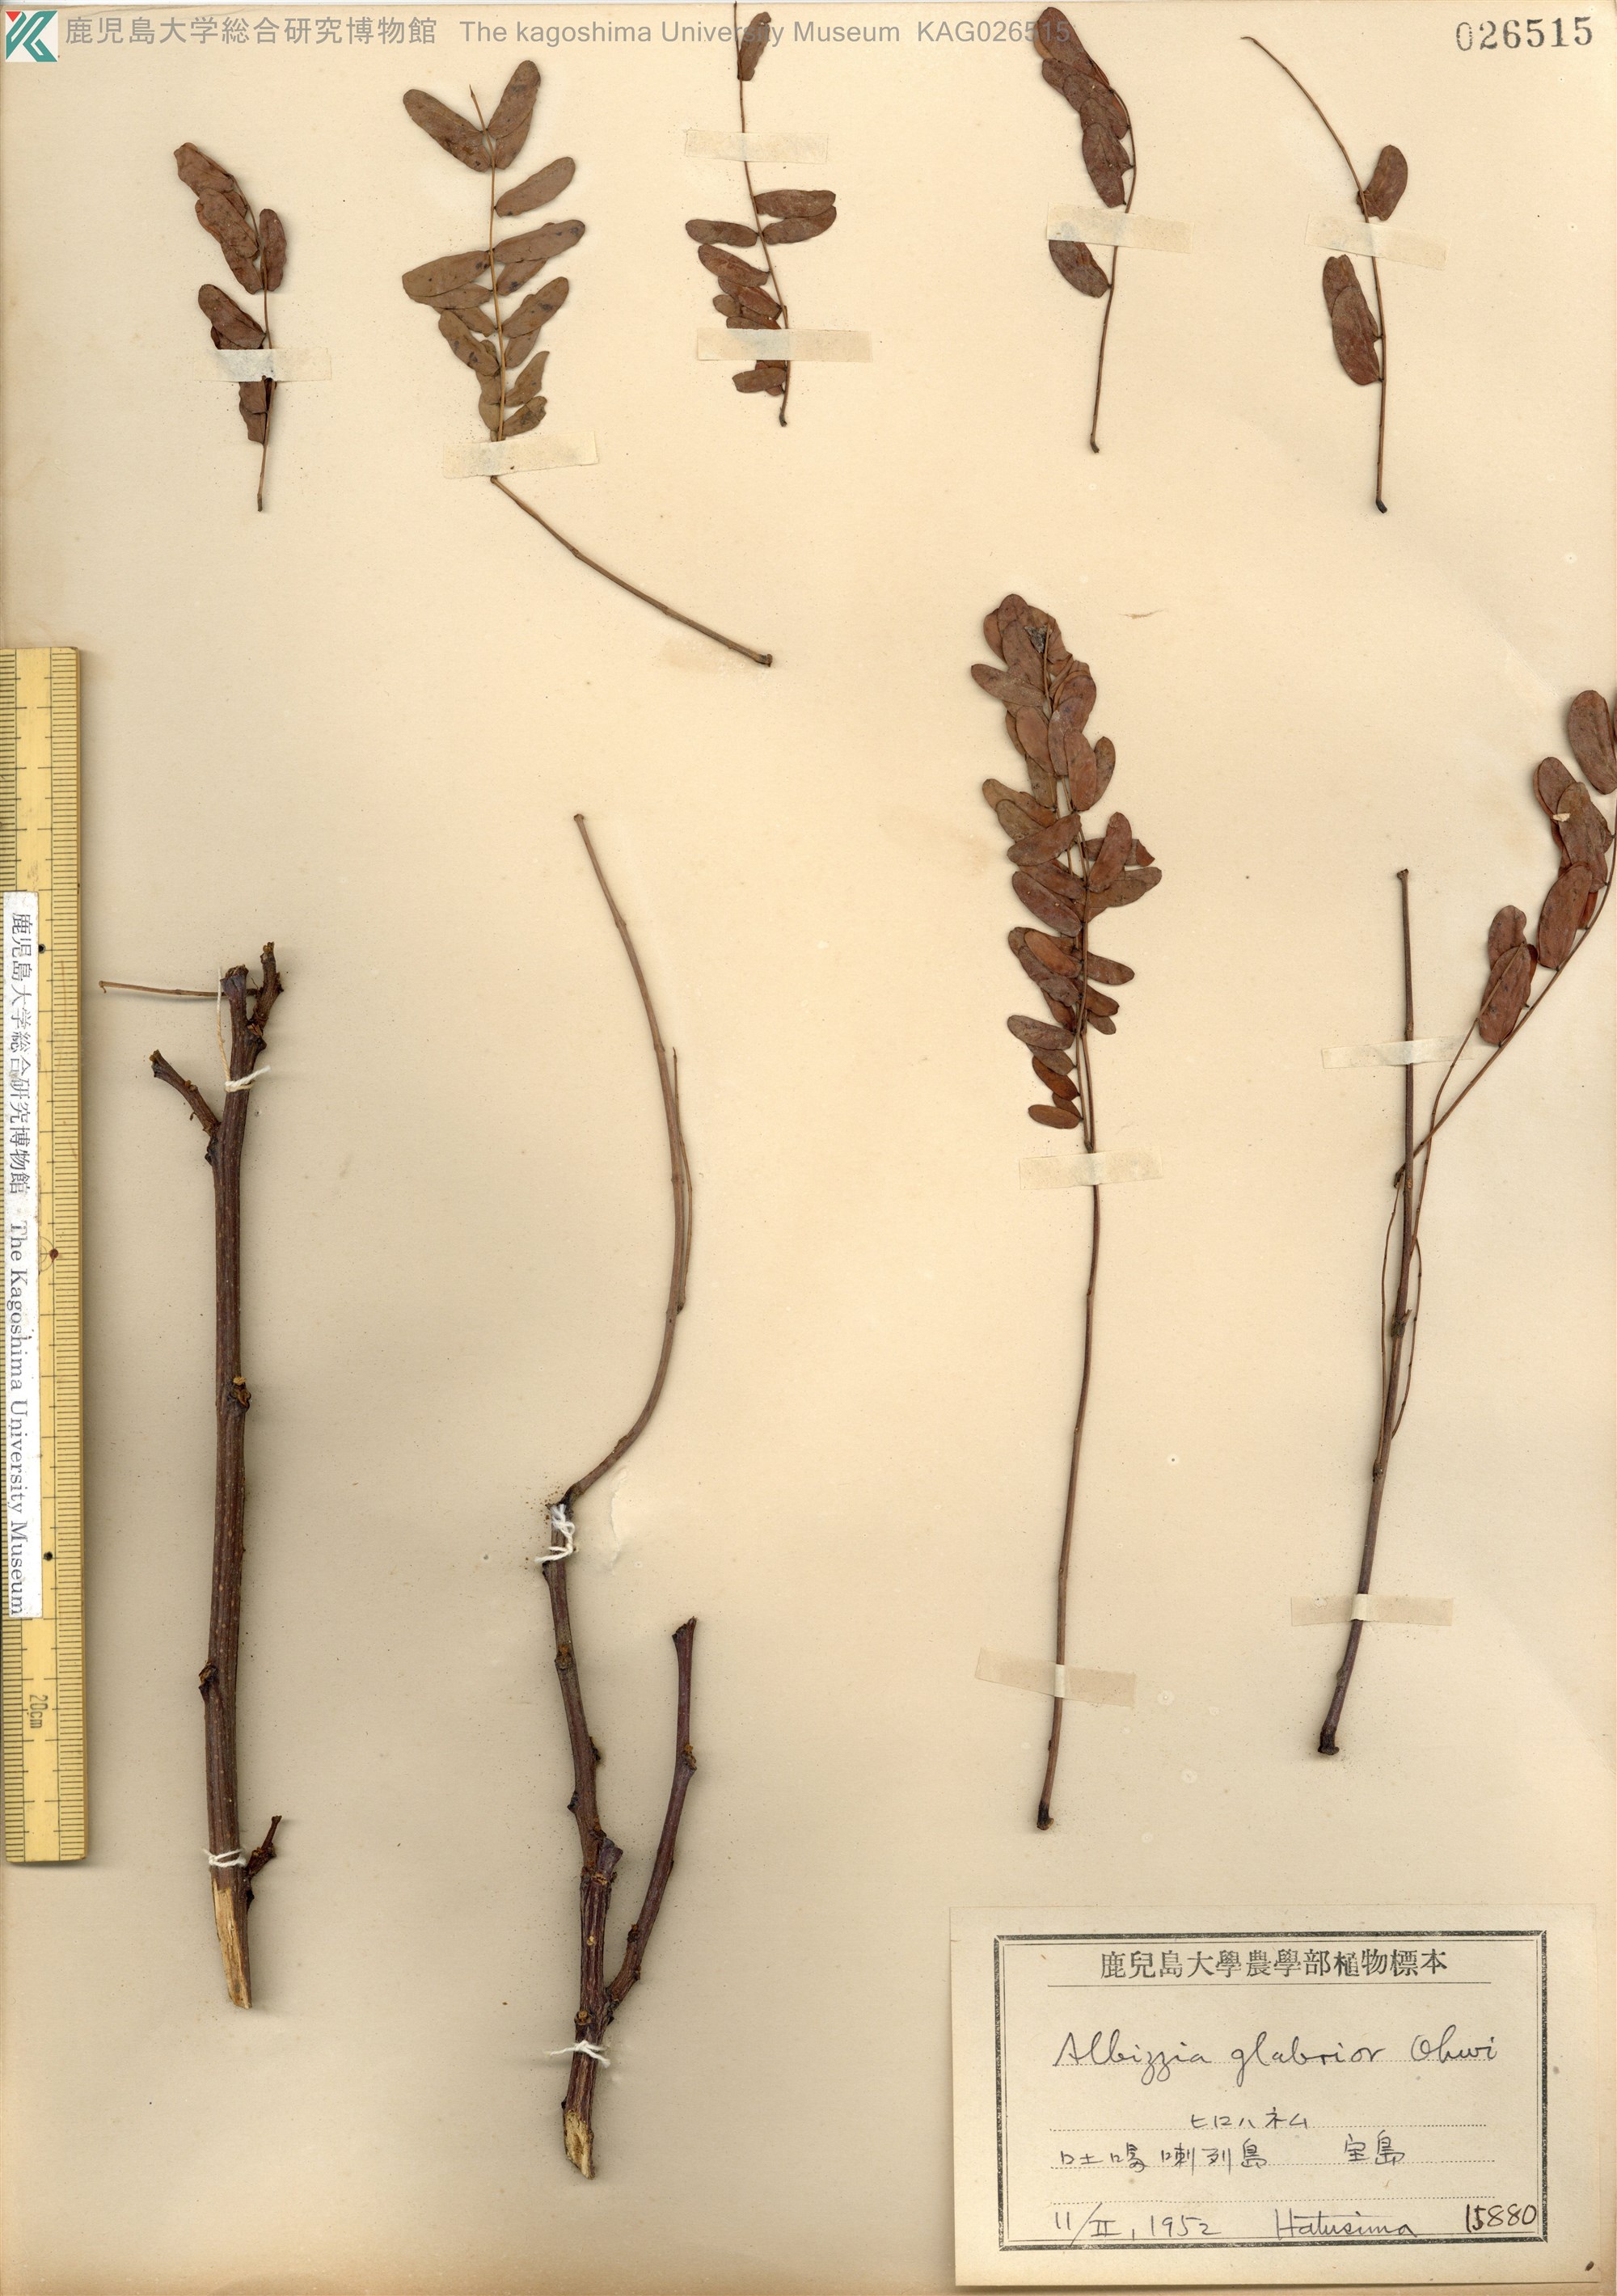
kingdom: Plantae
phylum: Tracheophyta
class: Magnoliopsida
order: Fabales
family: Fabaceae
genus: Albizia
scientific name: Albizia kalkora
